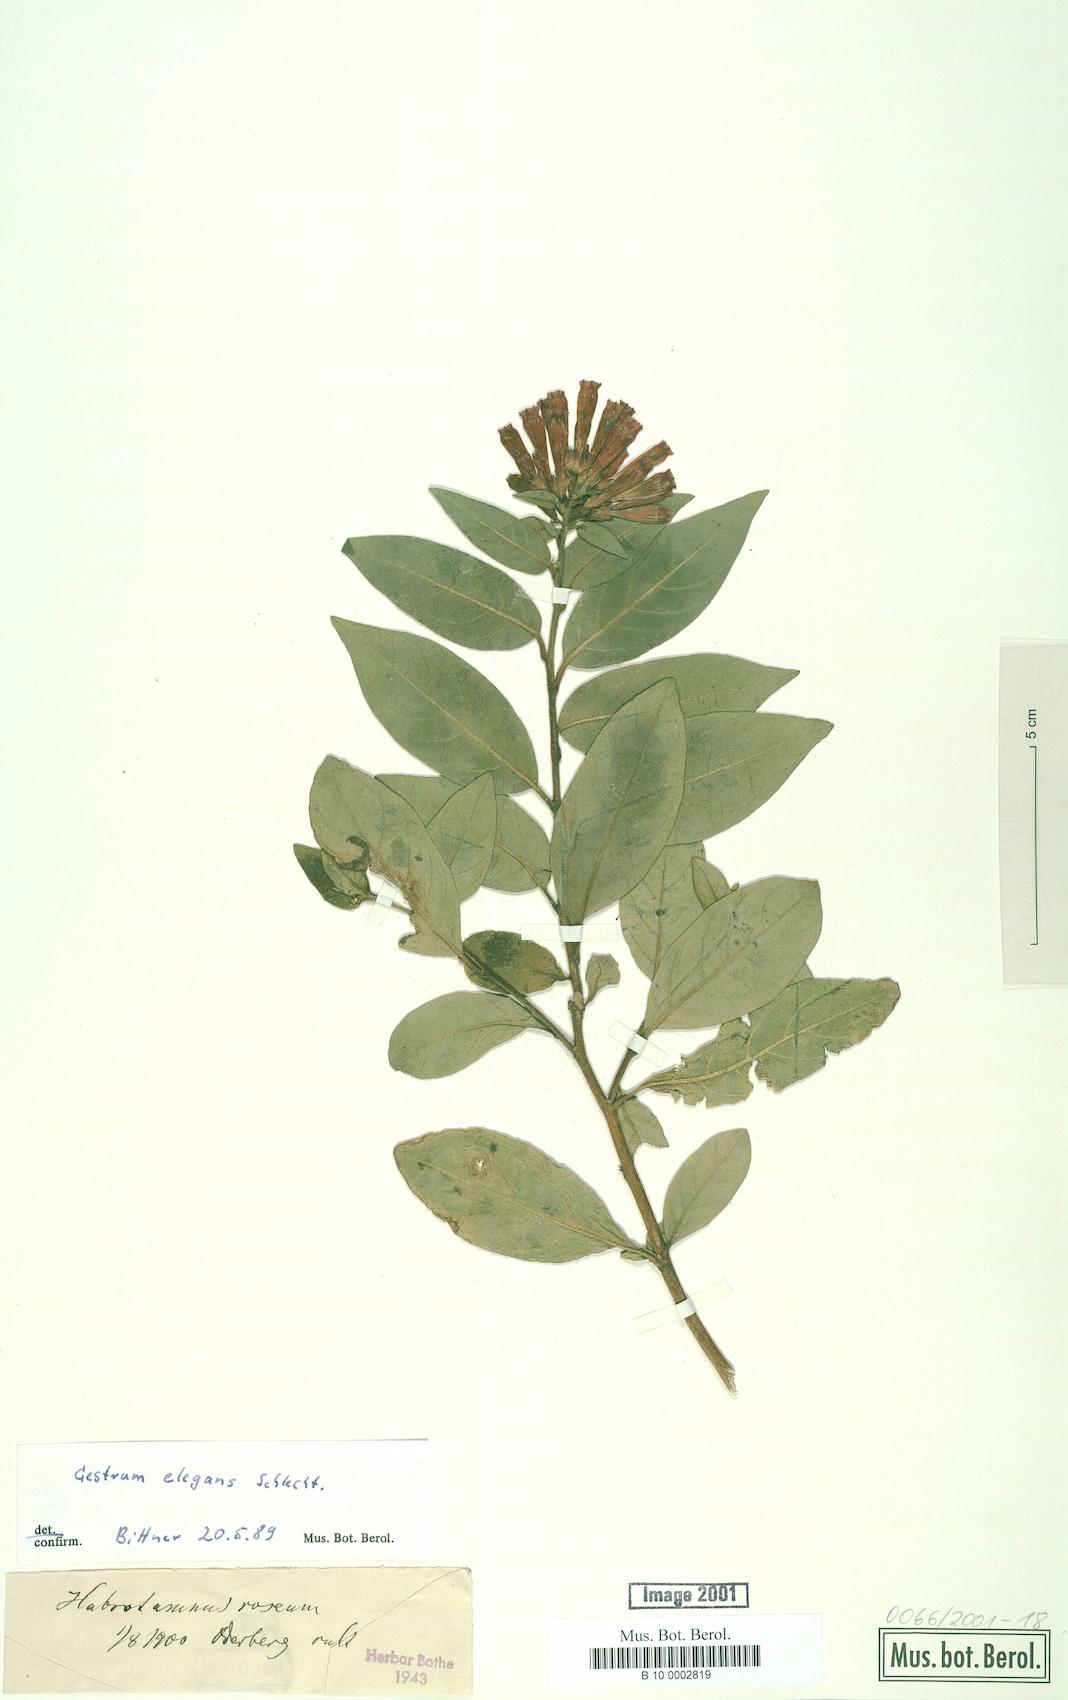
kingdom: Plantae
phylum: Tracheophyta
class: Magnoliopsida
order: Solanales
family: Solanaceae
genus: Cestrum
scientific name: Cestrum elegans
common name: Crimson cestrum
